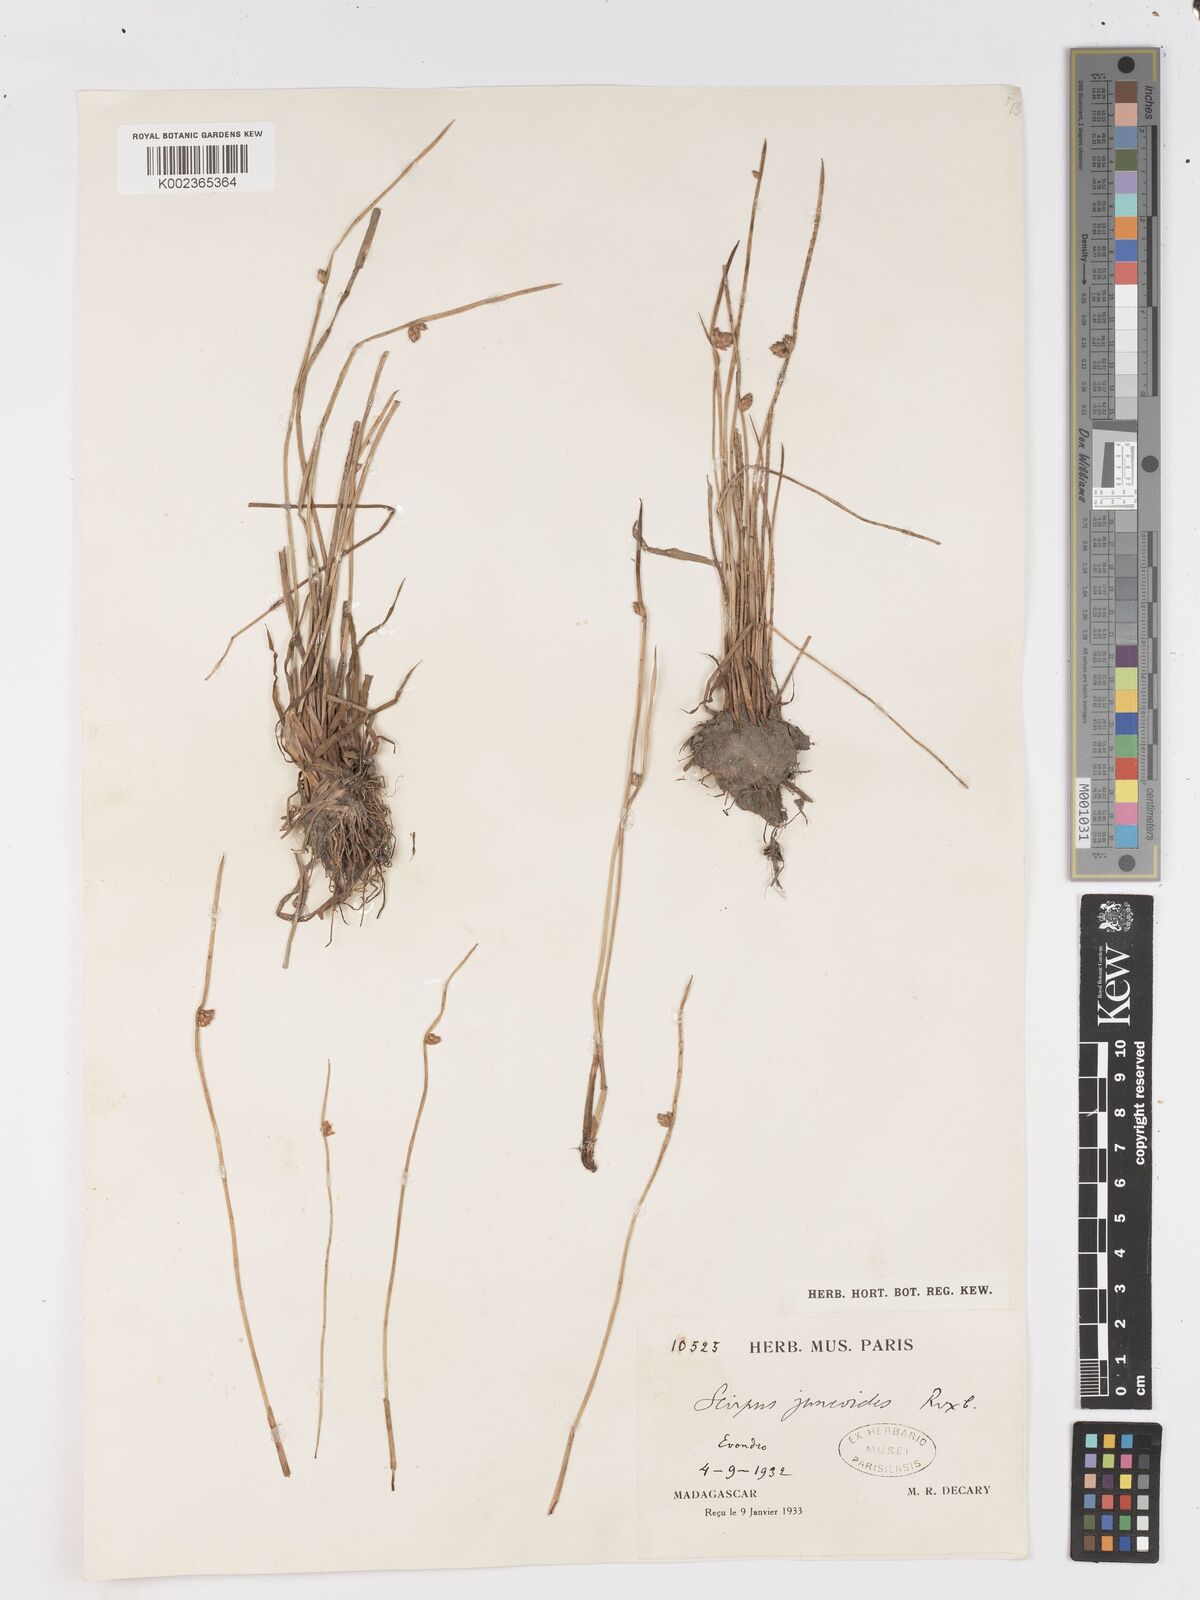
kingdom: Plantae
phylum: Tracheophyta
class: Liliopsida
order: Poales
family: Cyperaceae
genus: Schoenoplectiella
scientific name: Schoenoplectiella juncoides
